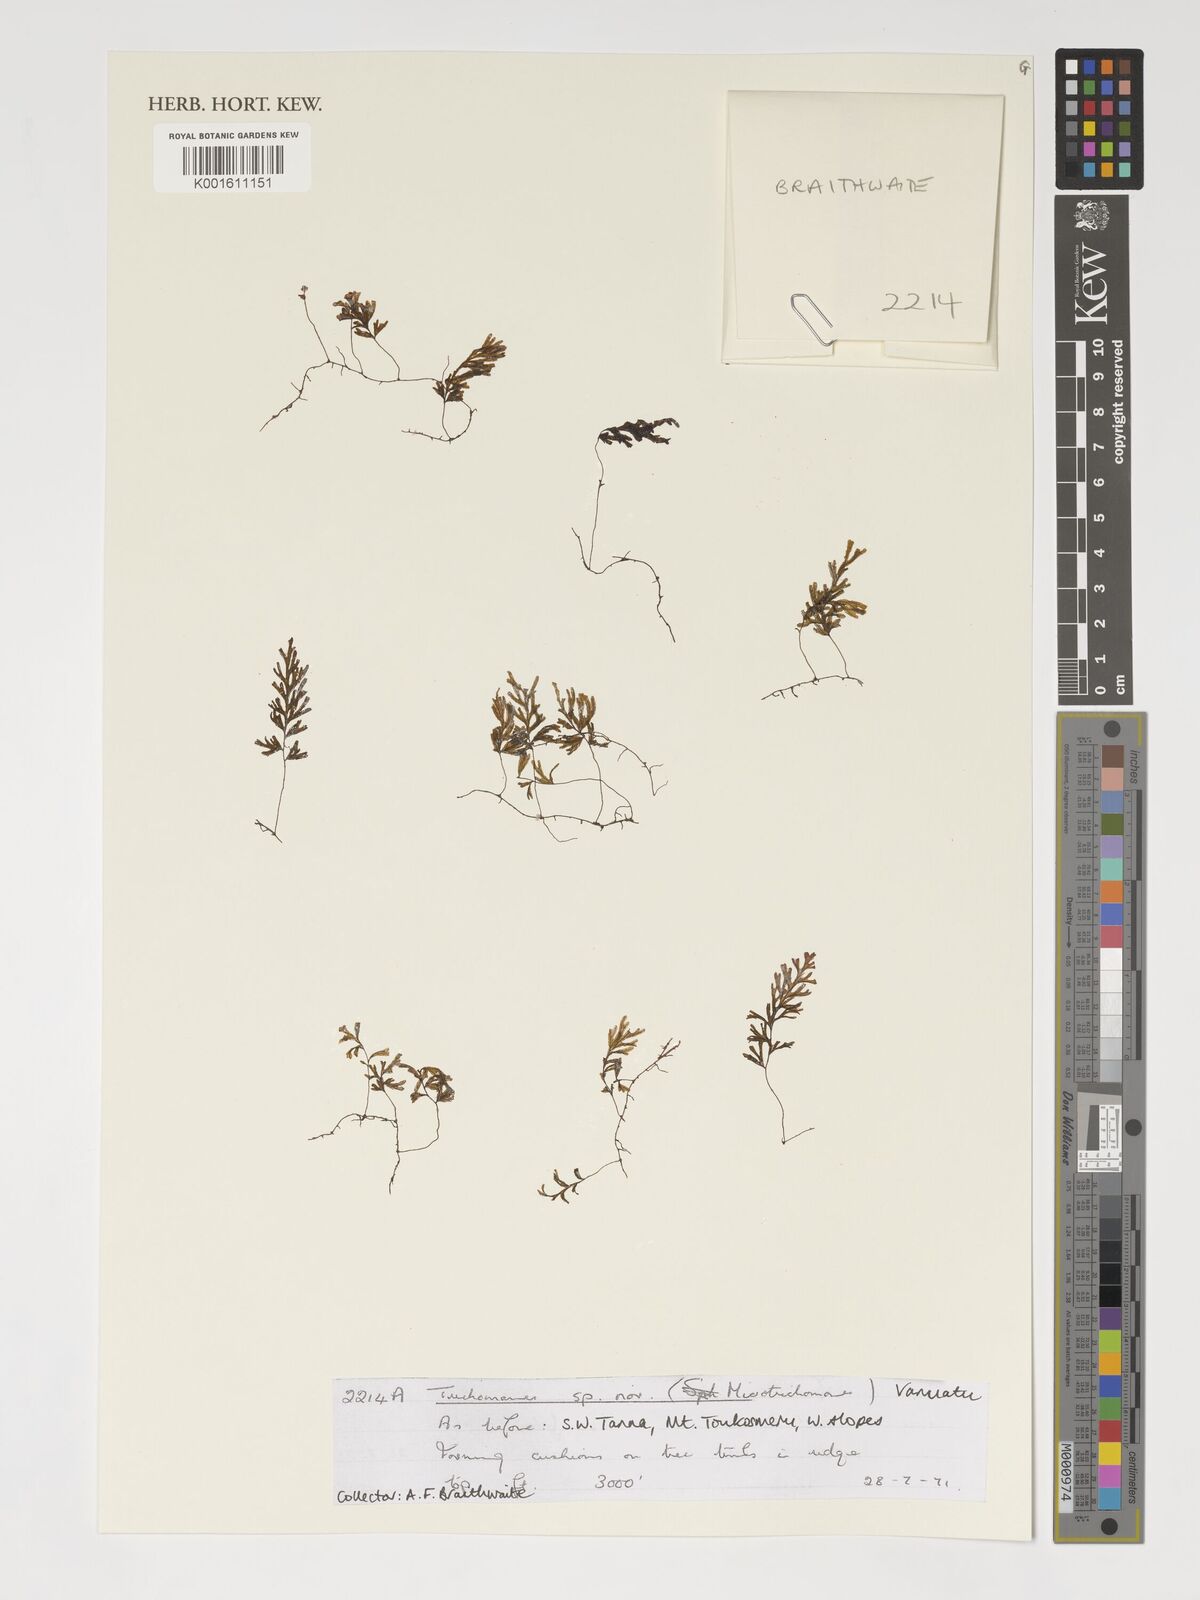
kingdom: Plantae
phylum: Tracheophyta
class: Polypodiopsida
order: Hymenophyllales
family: Hymenophyllaceae
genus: Trichomanes
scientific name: Trichomanes
